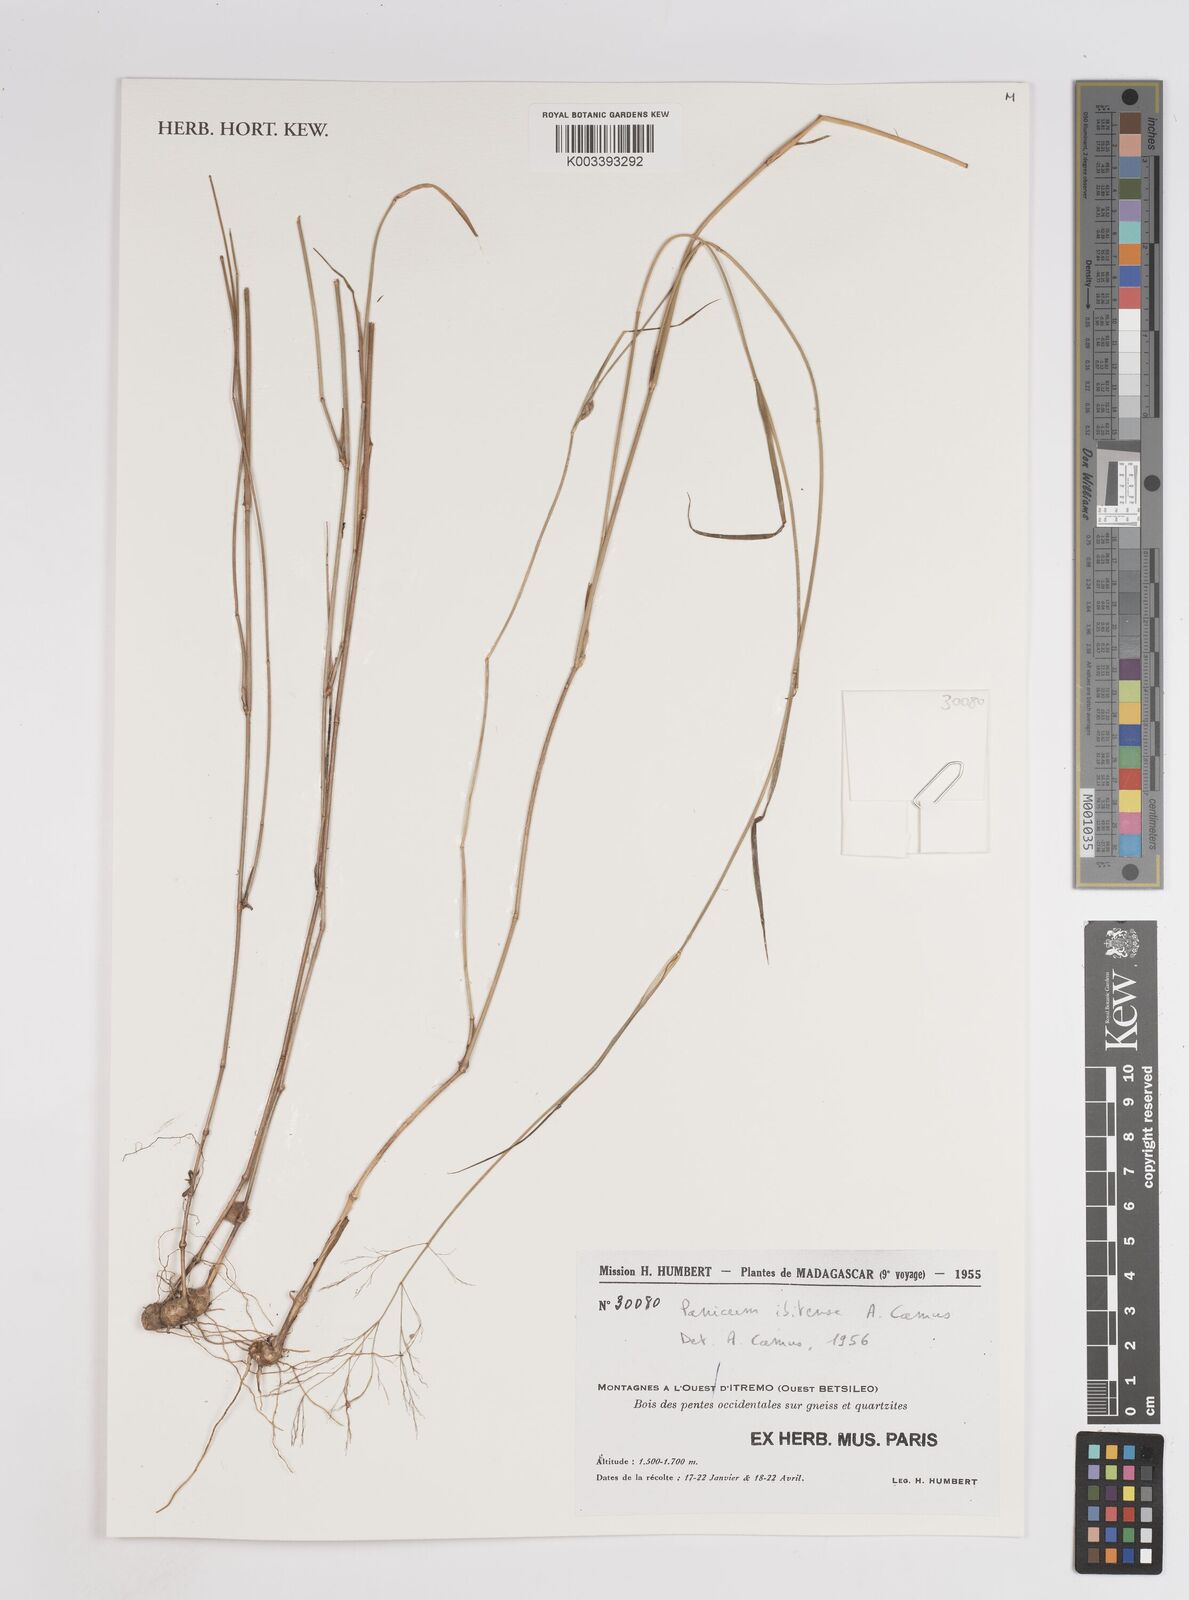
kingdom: Plantae
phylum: Tracheophyta
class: Liliopsida
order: Poales
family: Poaceae
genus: Panicum
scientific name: Panicum ibitense
